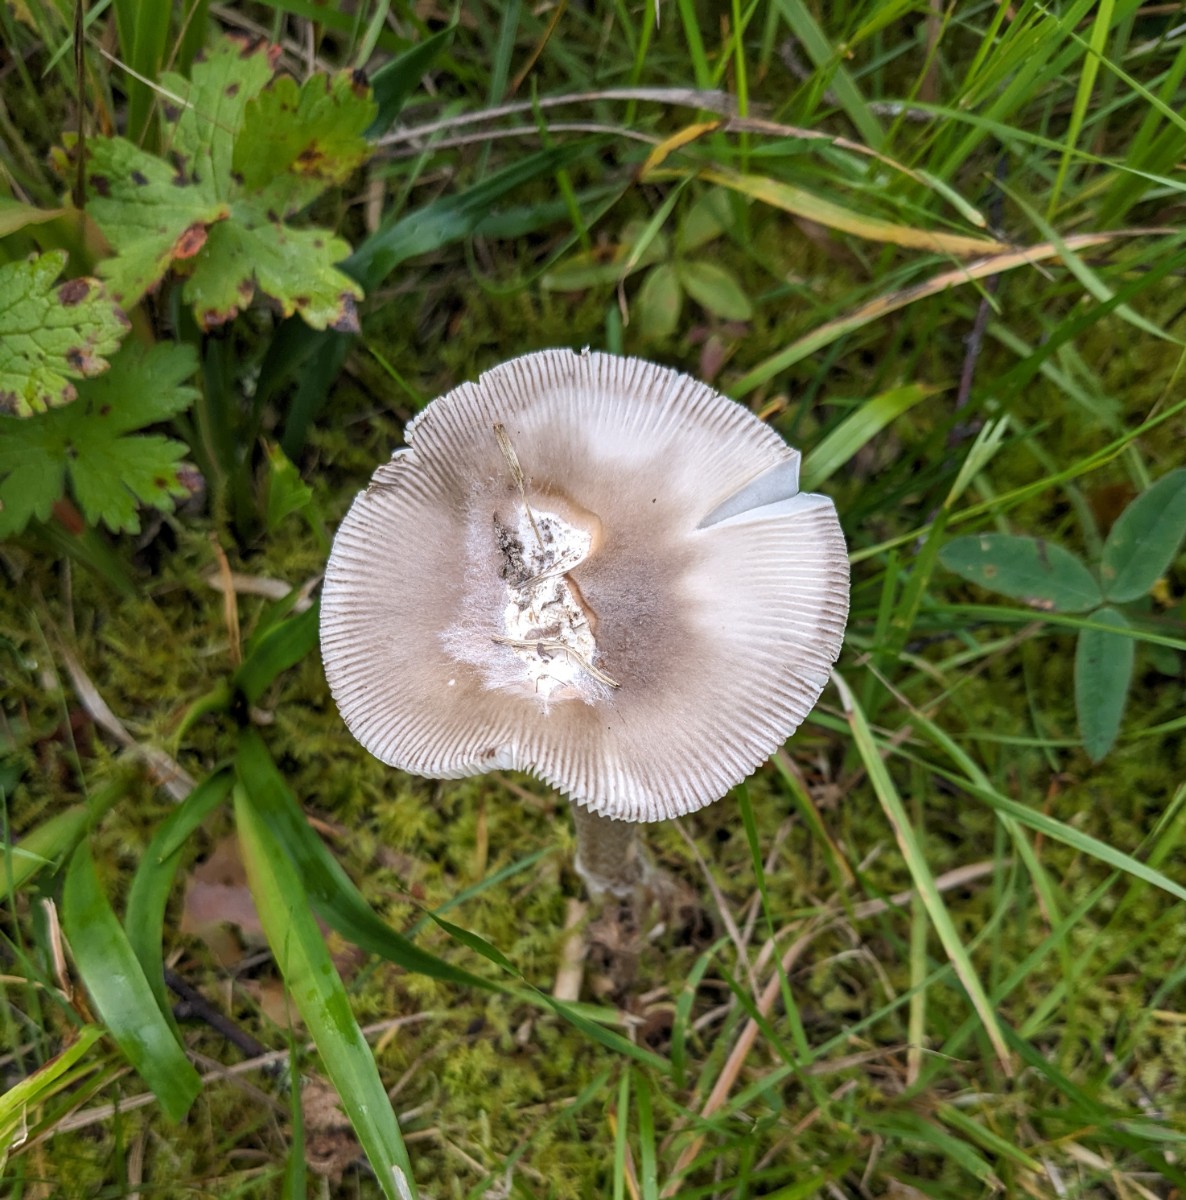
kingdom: Fungi
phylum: Basidiomycota
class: Agaricomycetes
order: Agaricales
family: Amanitaceae
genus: Amanita
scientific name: Amanita vaginata
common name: grå kam-fluesvamp
